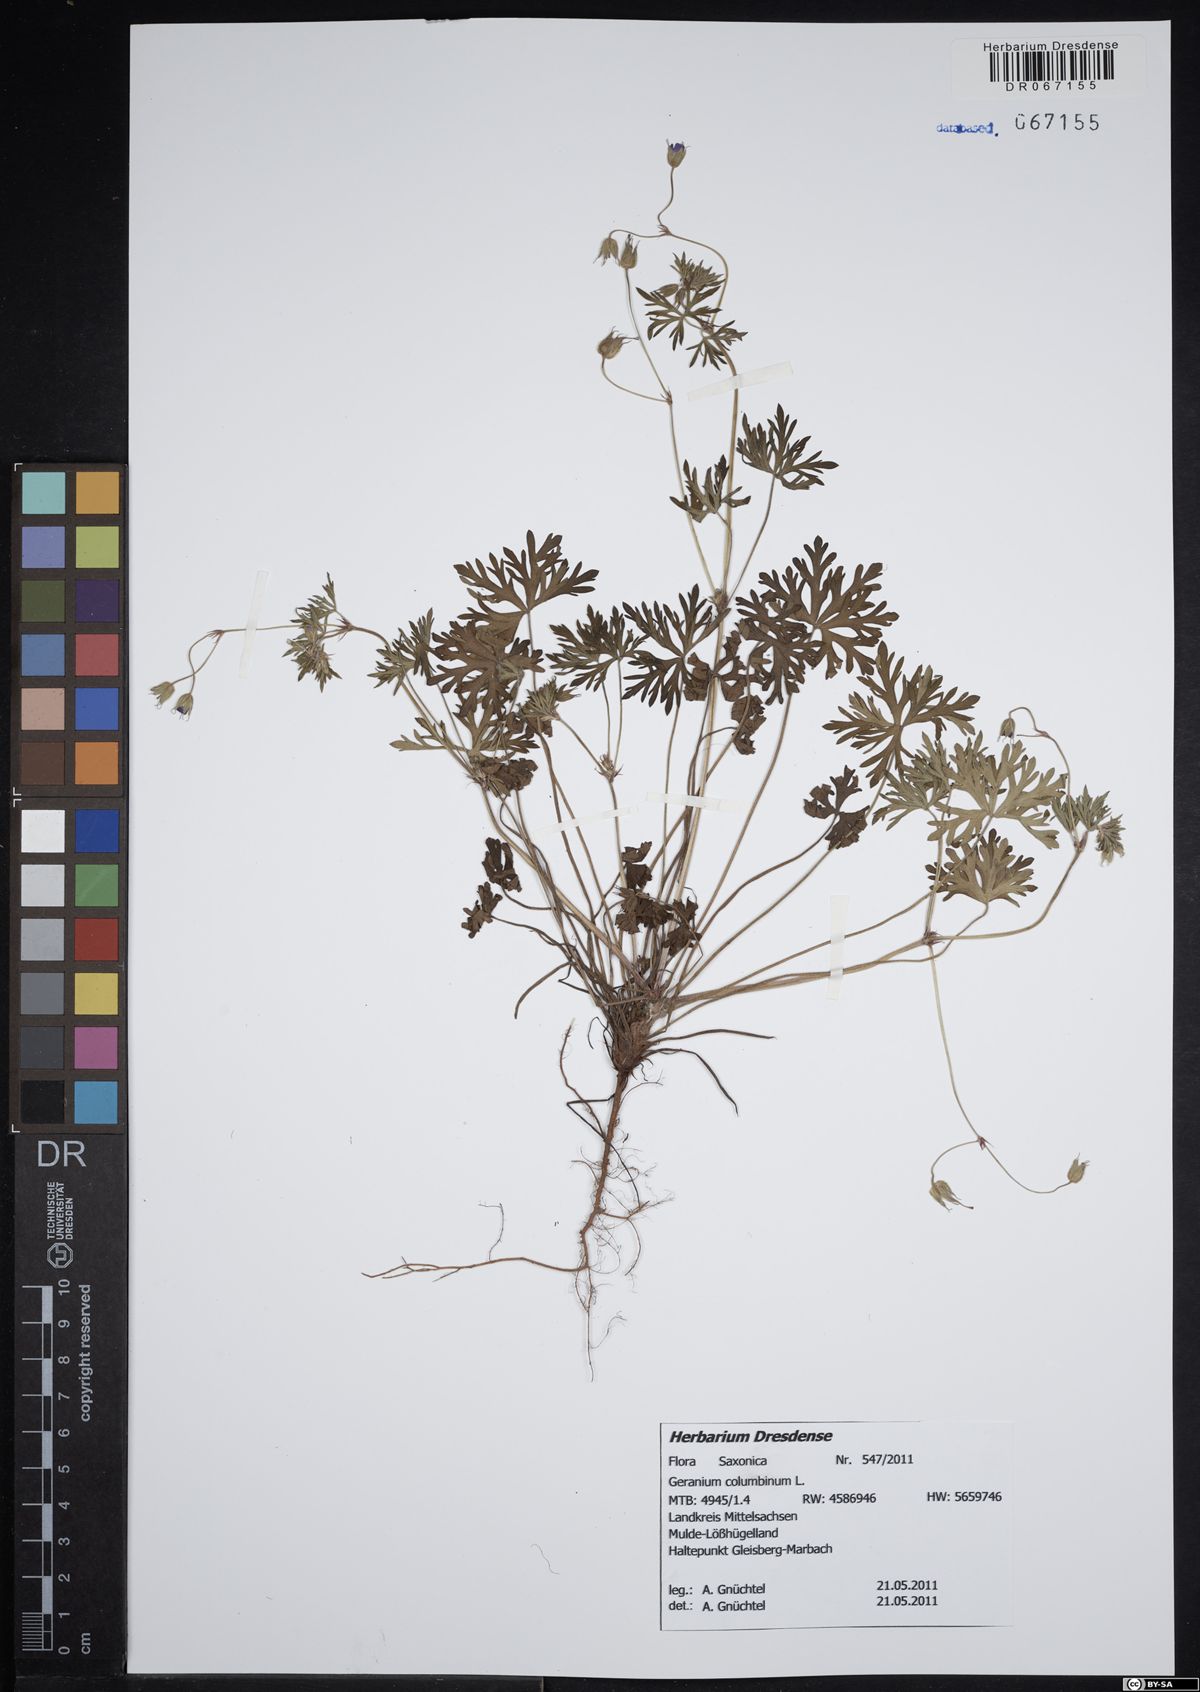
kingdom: Plantae
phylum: Tracheophyta
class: Magnoliopsida
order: Geraniales
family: Geraniaceae
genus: Geranium
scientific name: Geranium columbinum
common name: Long-stalked crane's-bill
